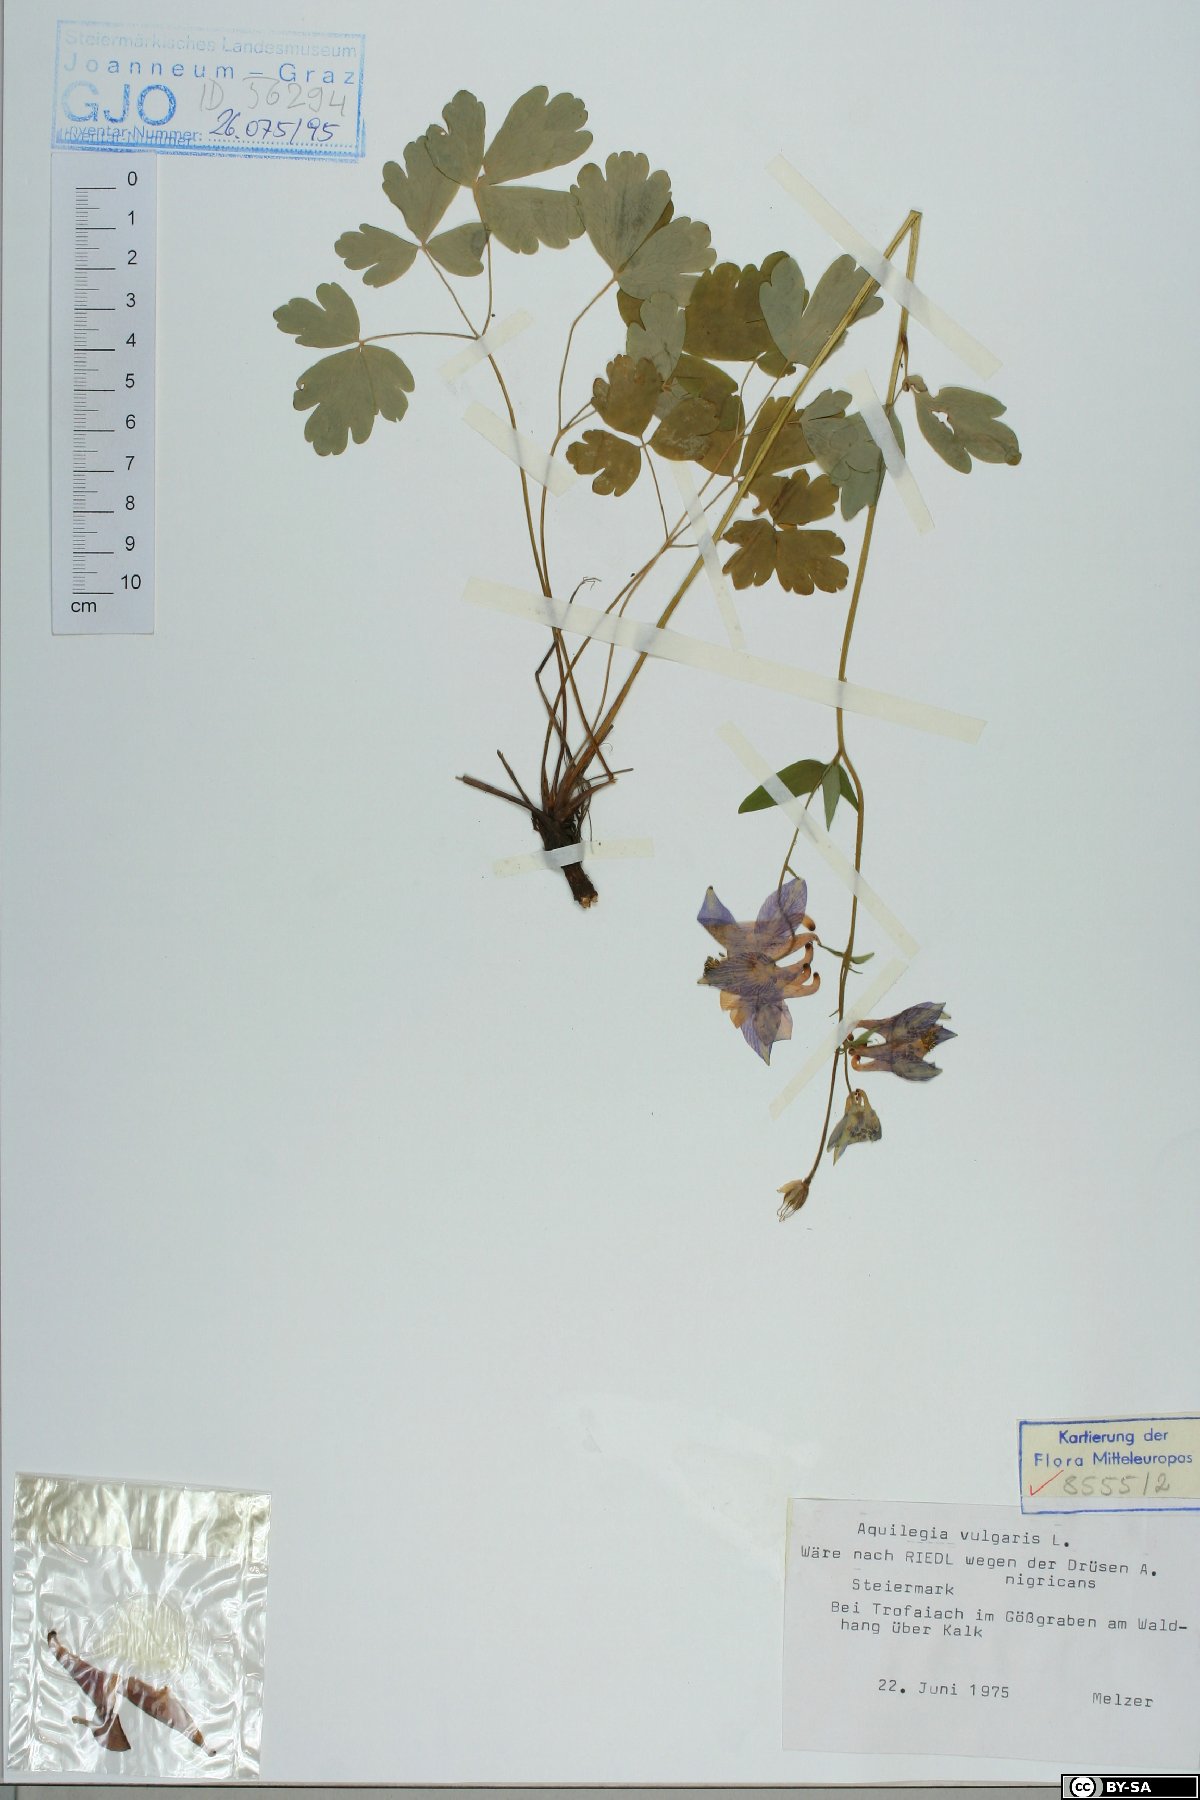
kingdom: Plantae
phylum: Tracheophyta
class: Magnoliopsida
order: Ranunculales
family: Ranunculaceae
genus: Aquilegia
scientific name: Aquilegia vulgaris
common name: Columbine
